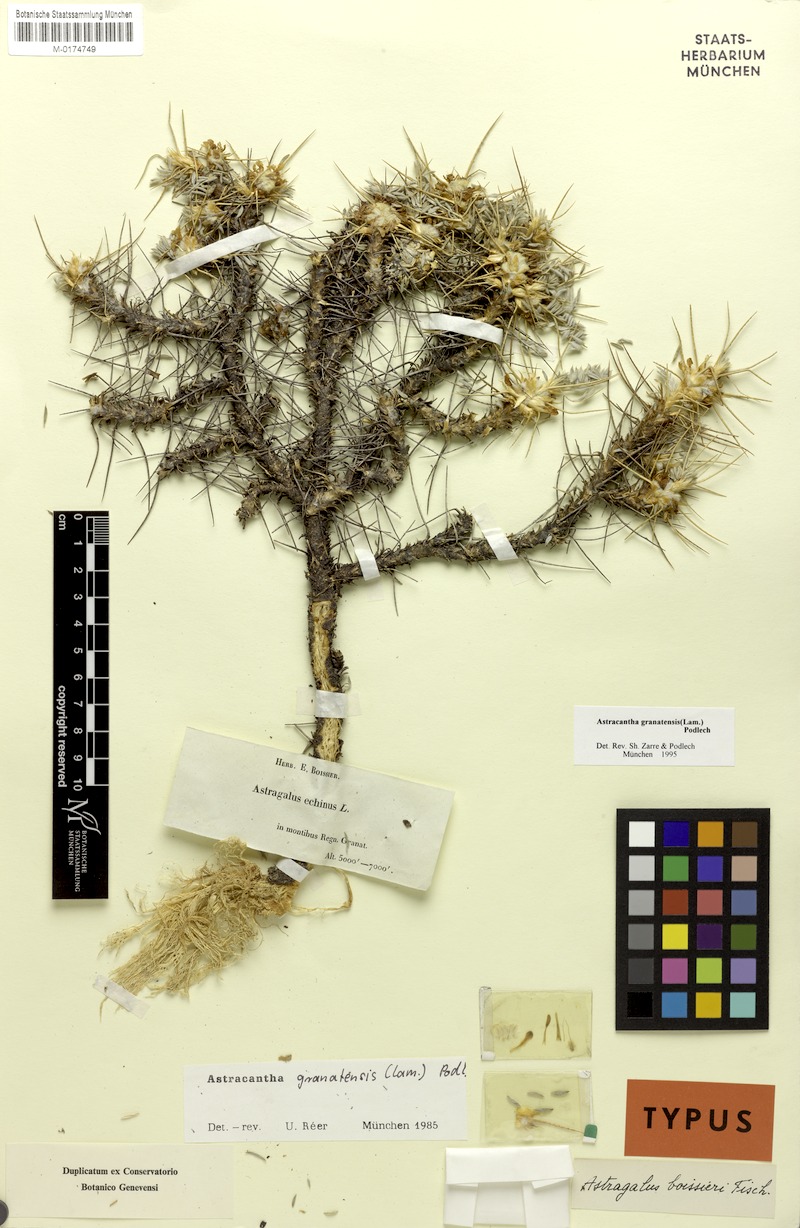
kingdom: Plantae
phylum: Tracheophyta
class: Magnoliopsida
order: Fabales
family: Fabaceae
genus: Astragalus
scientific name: Astragalus granatensis
